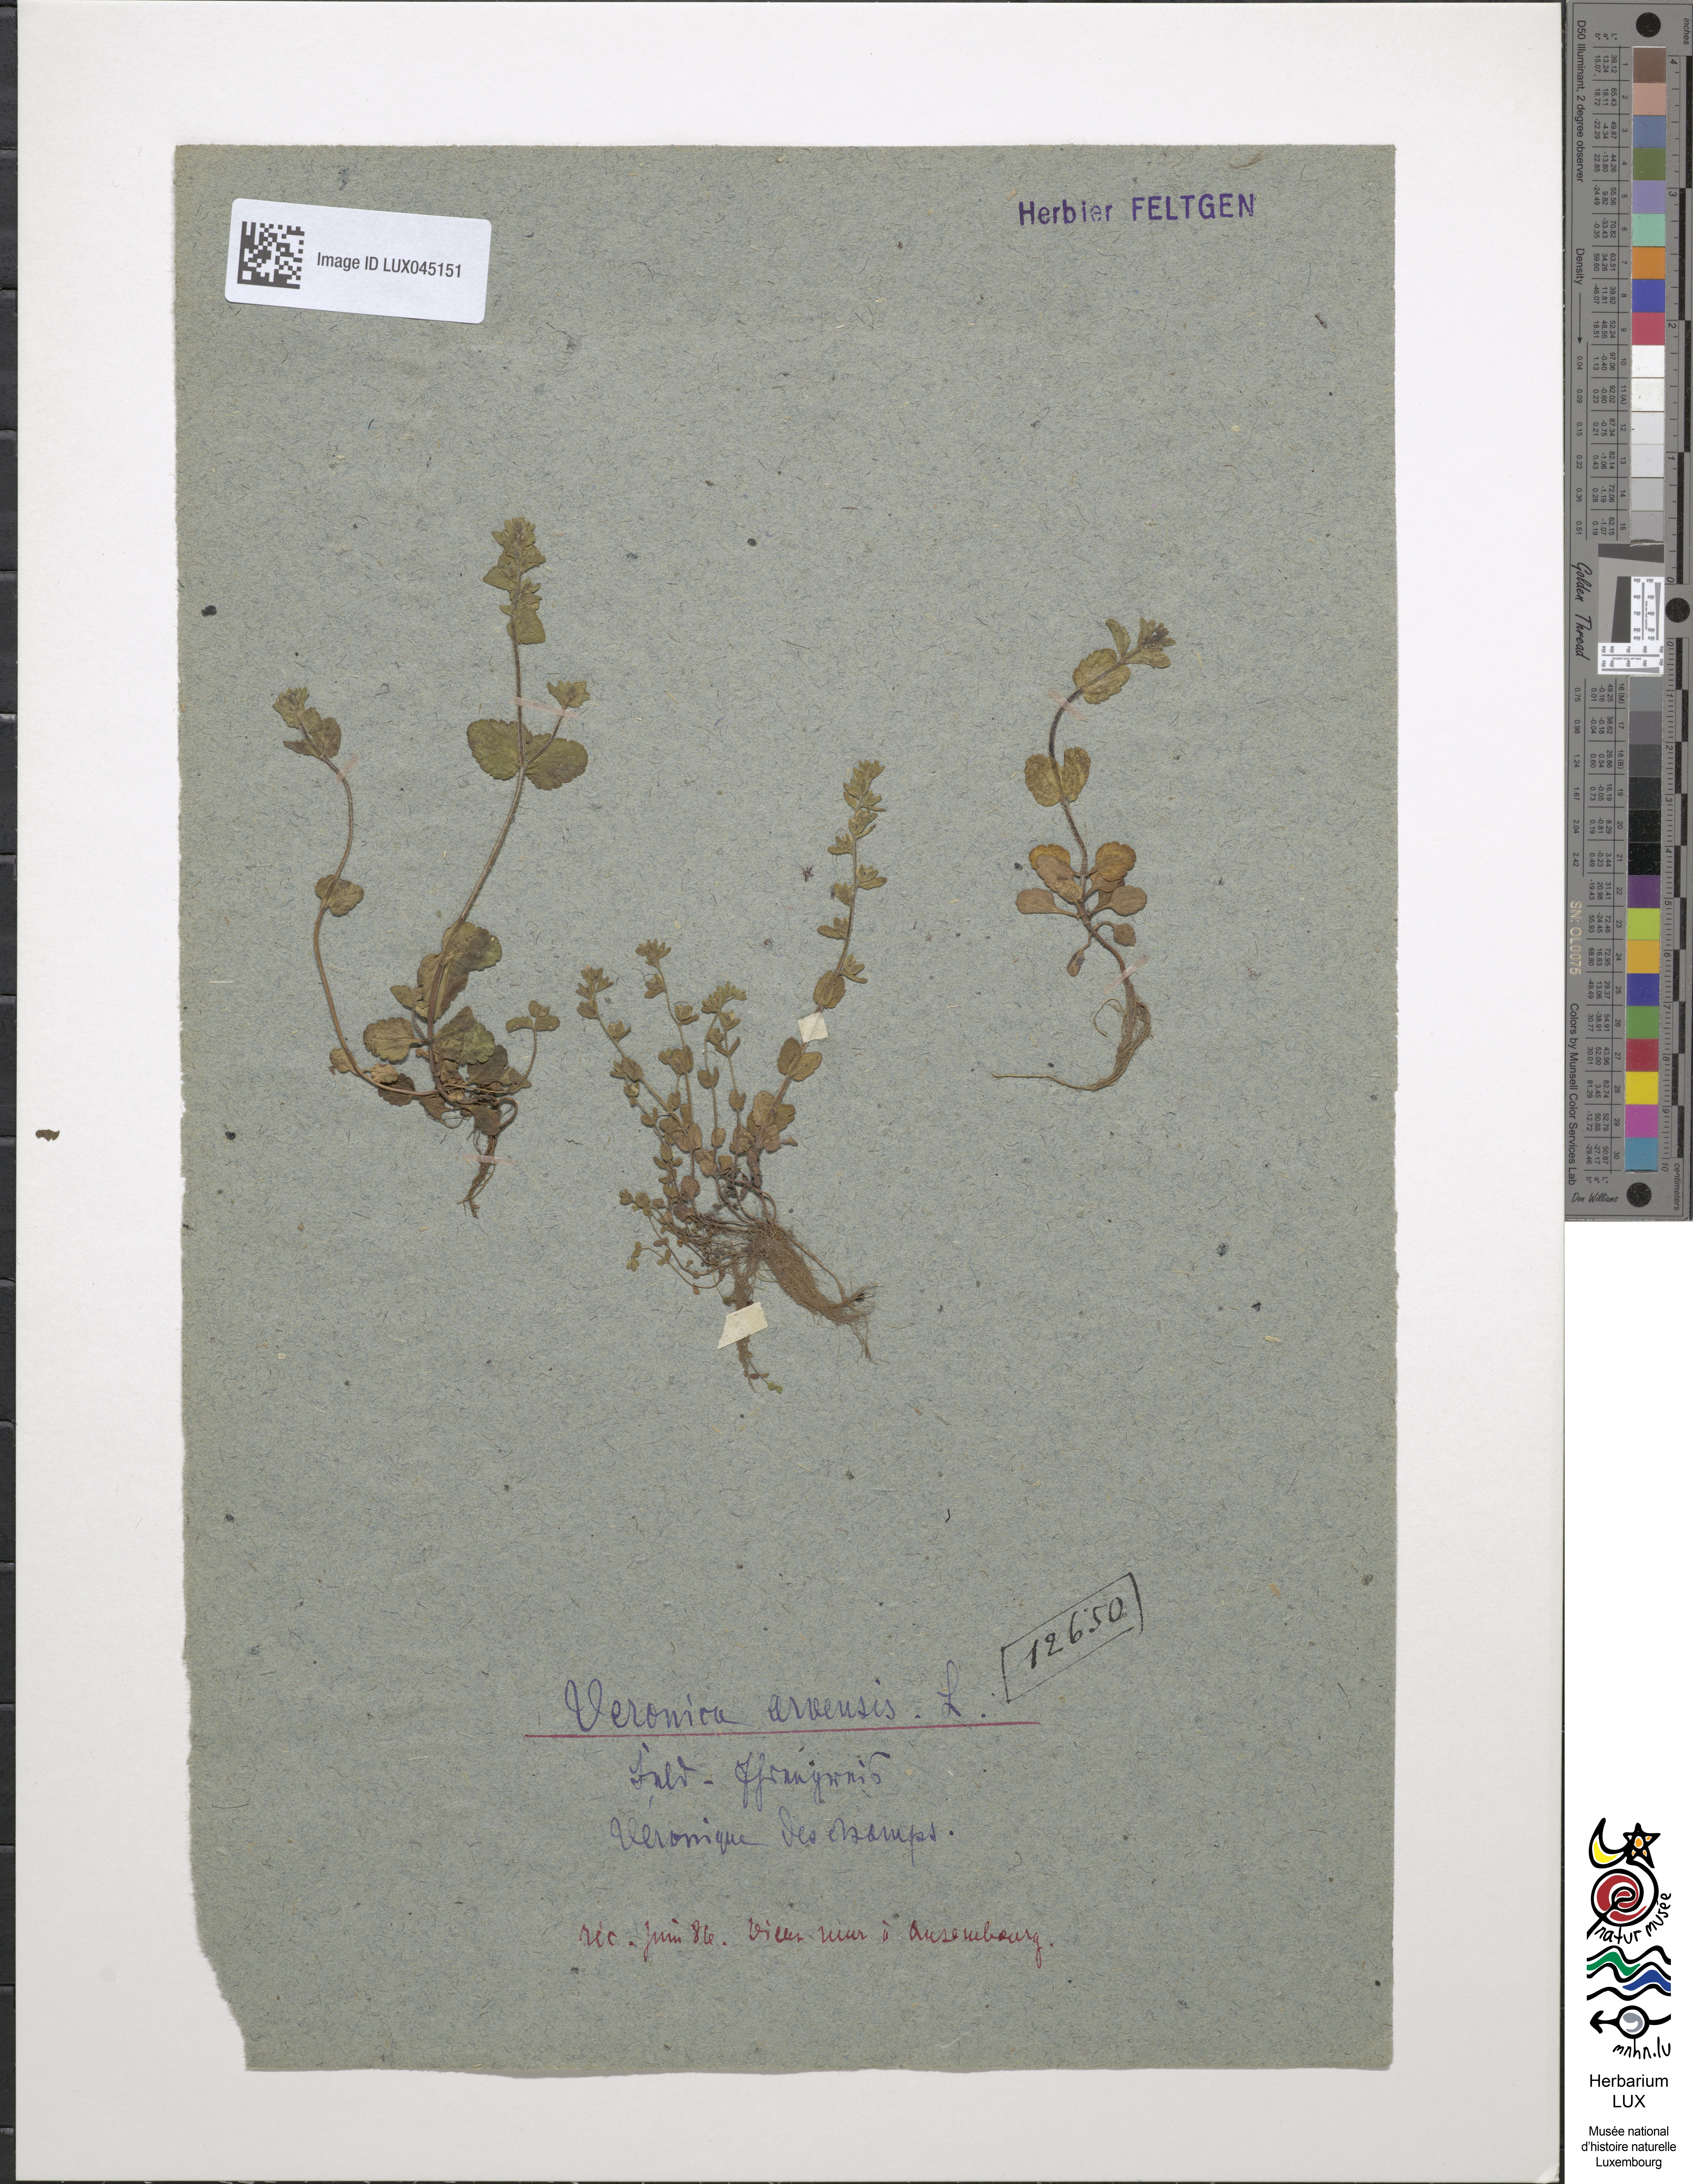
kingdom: Plantae
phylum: Tracheophyta
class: Magnoliopsida
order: Lamiales
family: Plantaginaceae
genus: Veronica
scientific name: Veronica arvensis
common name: Corn speedwell
